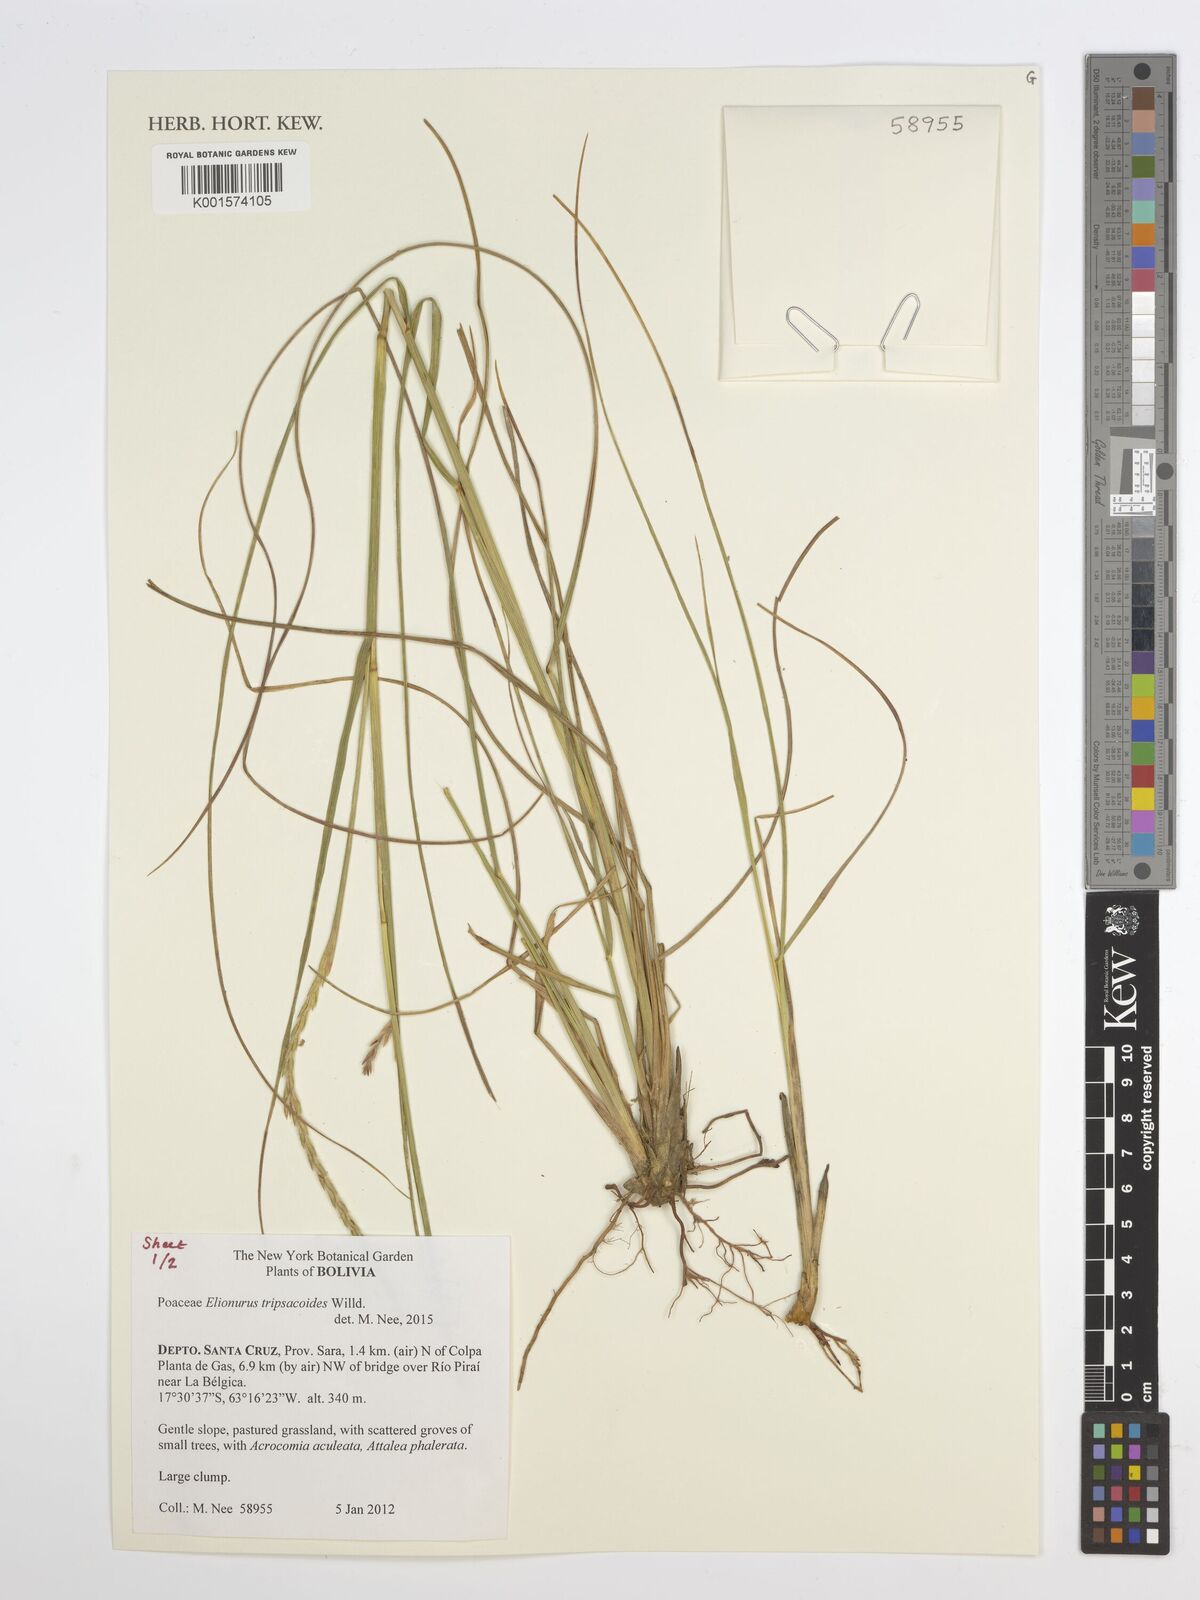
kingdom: Plantae
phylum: Tracheophyta
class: Liliopsida
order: Poales
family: Poaceae
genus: Elionurus
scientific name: Elionurus tripsacoides
